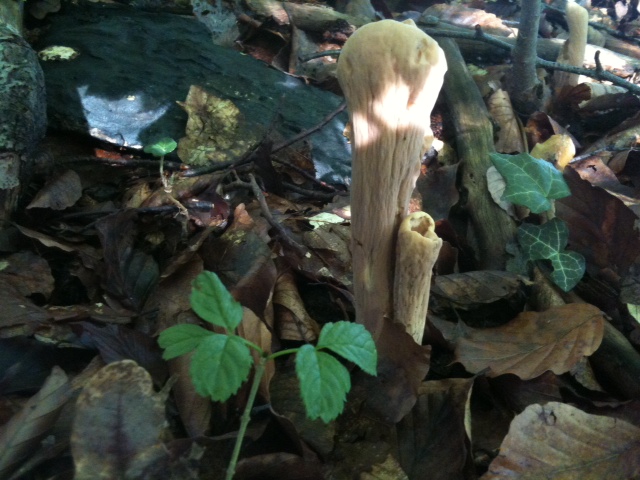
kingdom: Fungi
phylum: Basidiomycota
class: Agaricomycetes
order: Gomphales
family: Clavariadelphaceae
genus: Clavariadelphus
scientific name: Clavariadelphus pistillaris
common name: herkules-kæmpekølle
